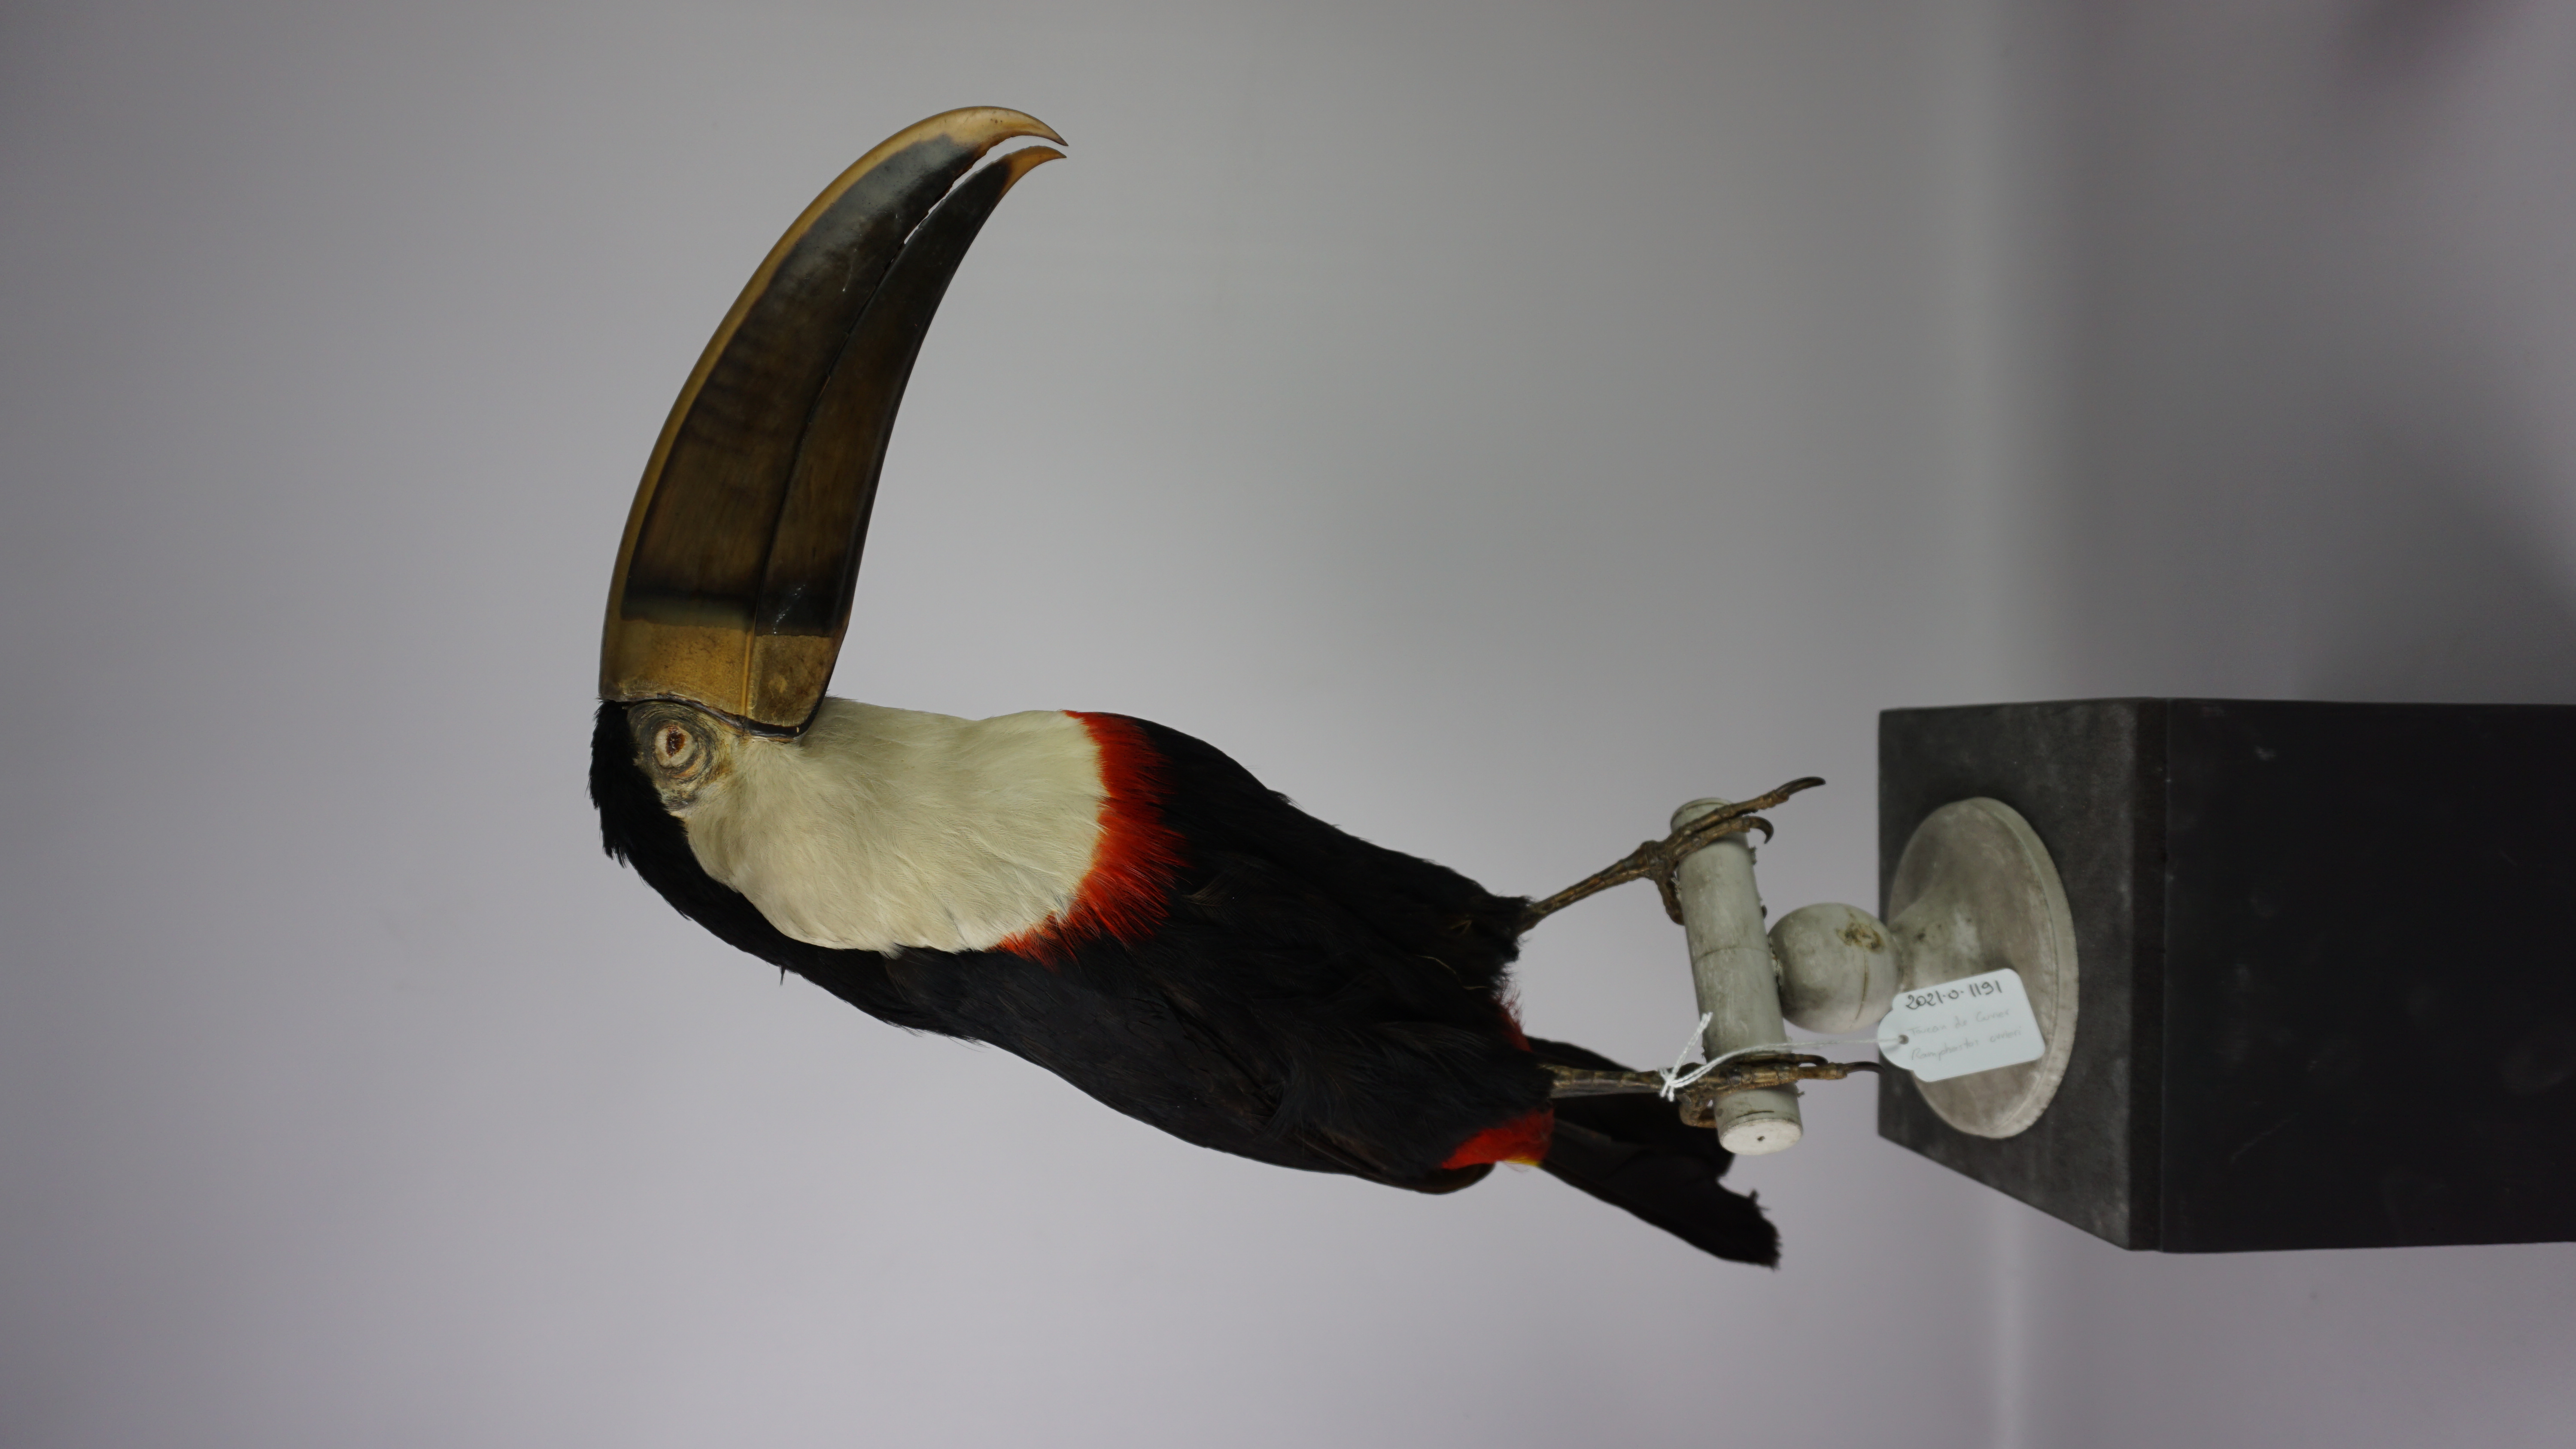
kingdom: Animalia
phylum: Chordata
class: Aves
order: Piciformes
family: Ramphastidae
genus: Ramphastos
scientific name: Ramphastos tucanus
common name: White-throated toucan
